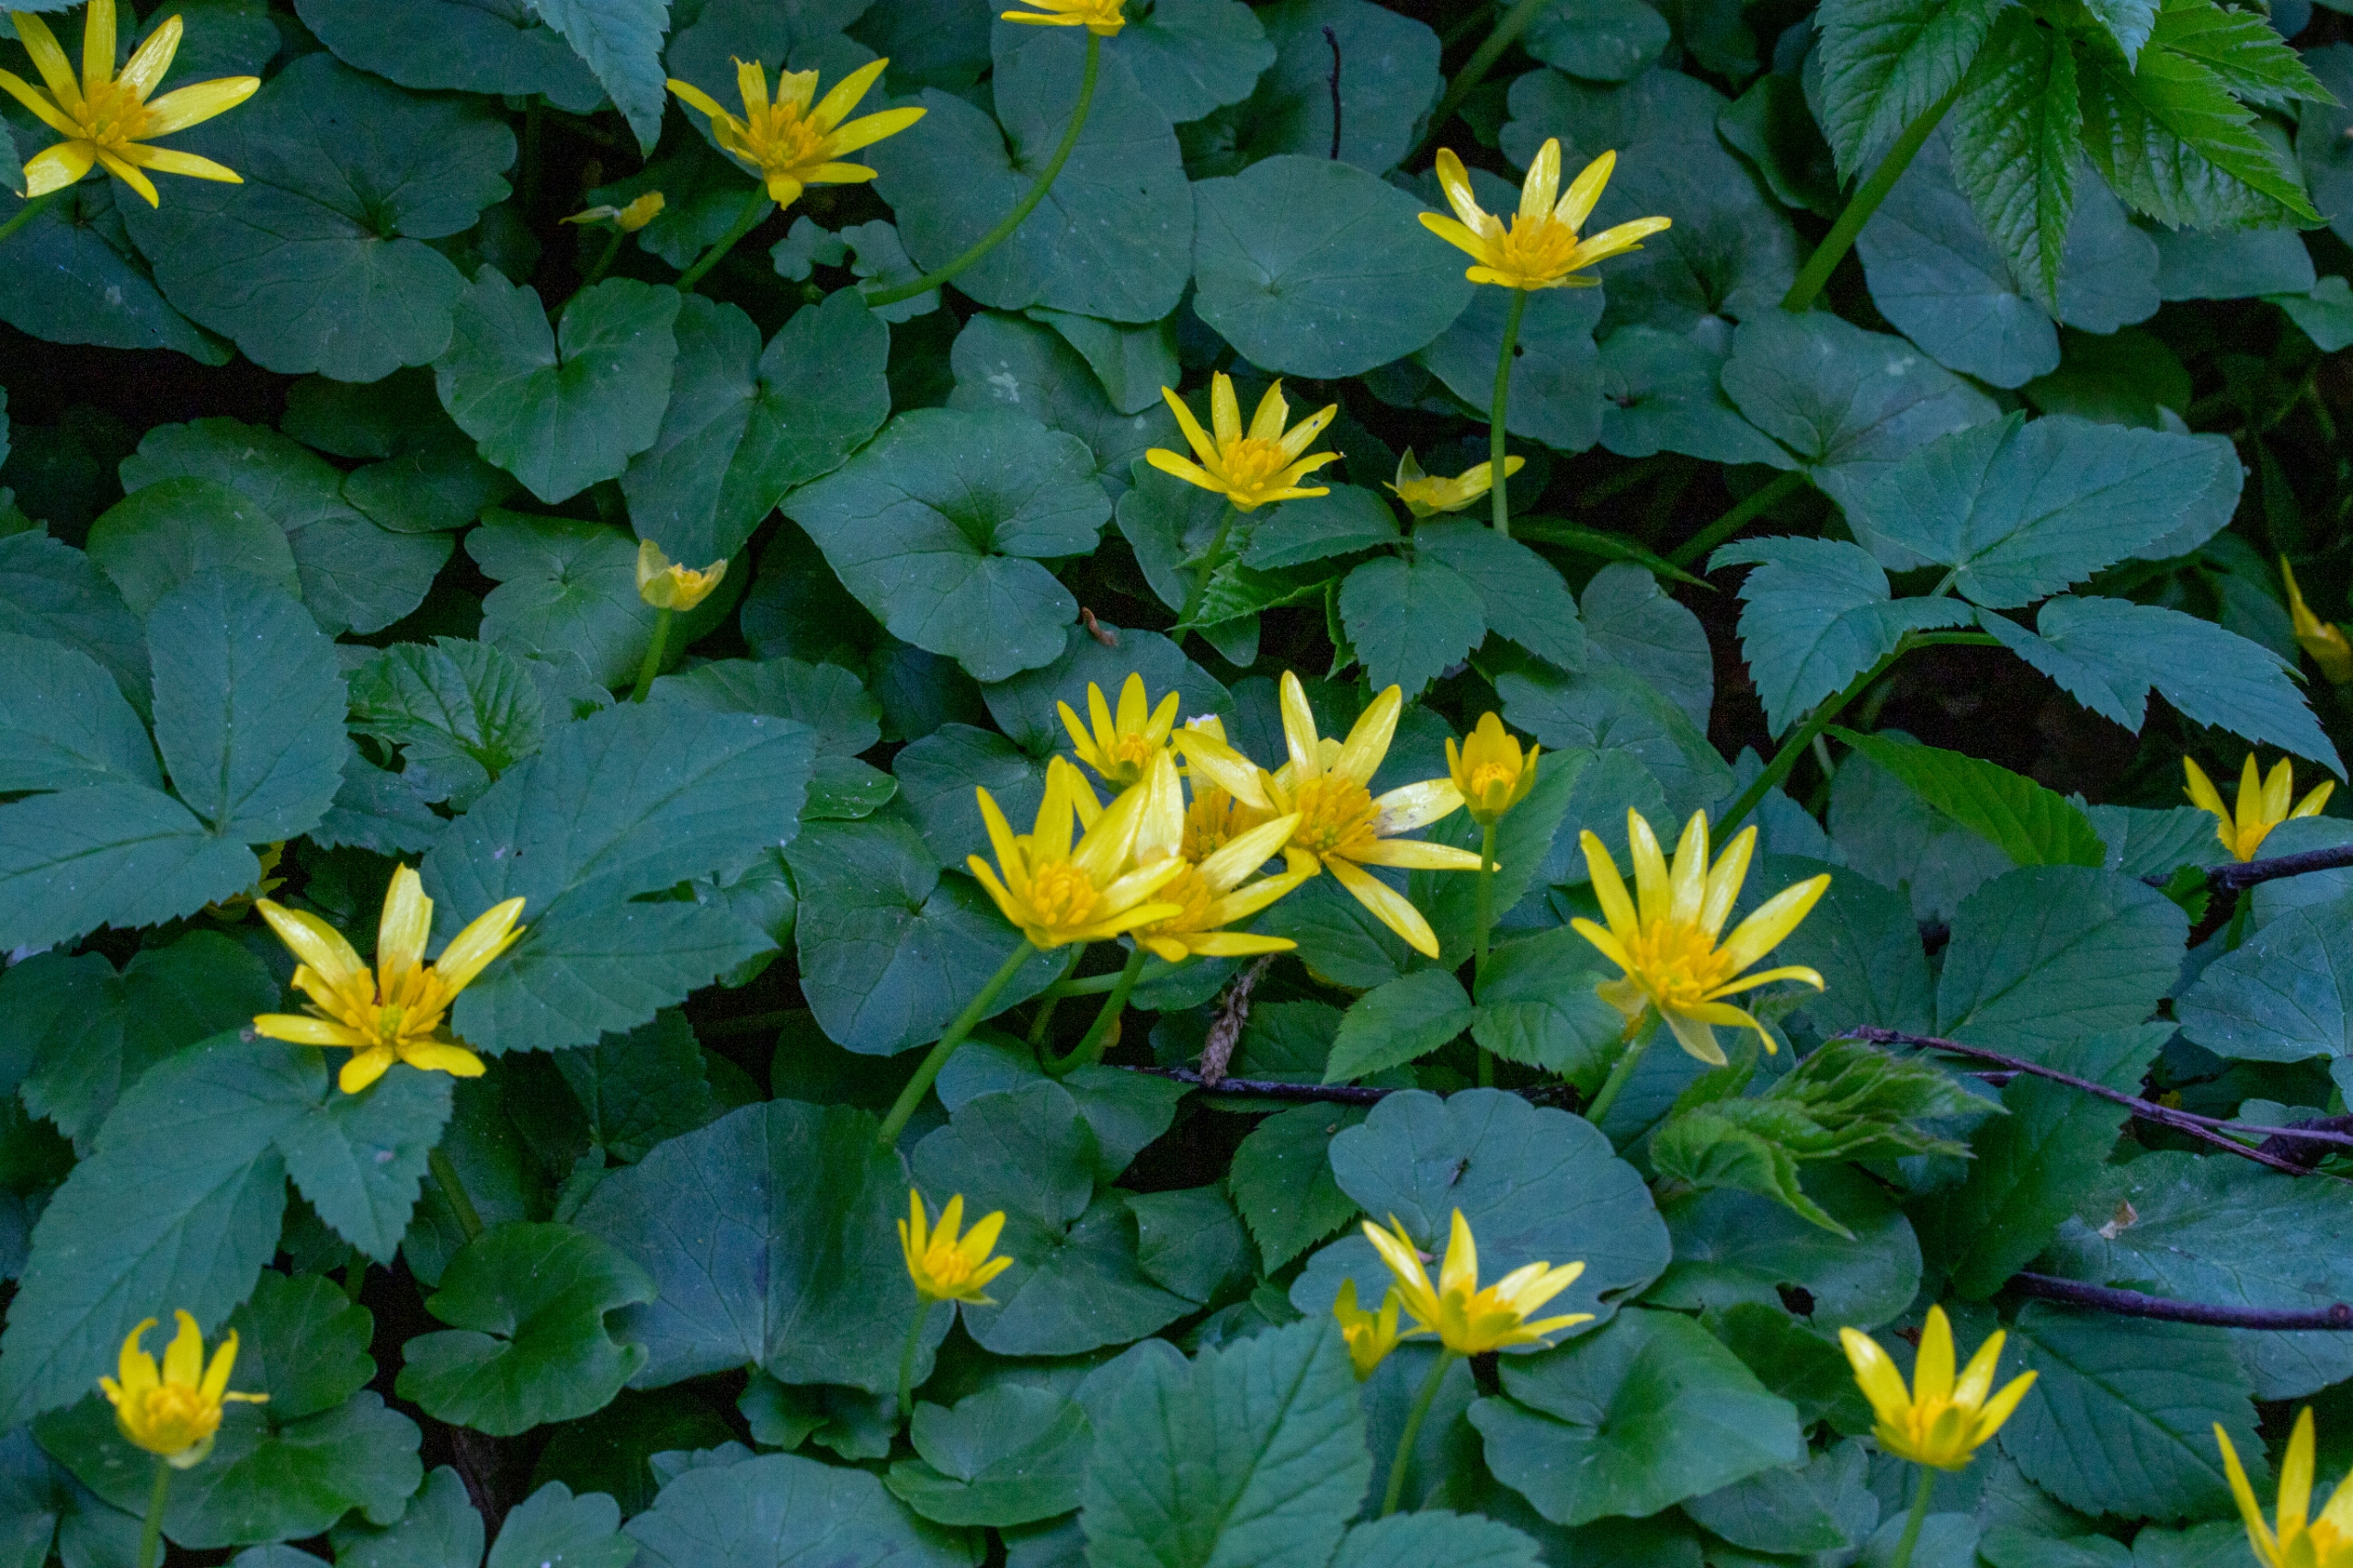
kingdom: Plantae
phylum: Tracheophyta
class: Magnoliopsida
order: Ranunculales
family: Ranunculaceae
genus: Ficaria
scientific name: Ficaria verna
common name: Vorterod
